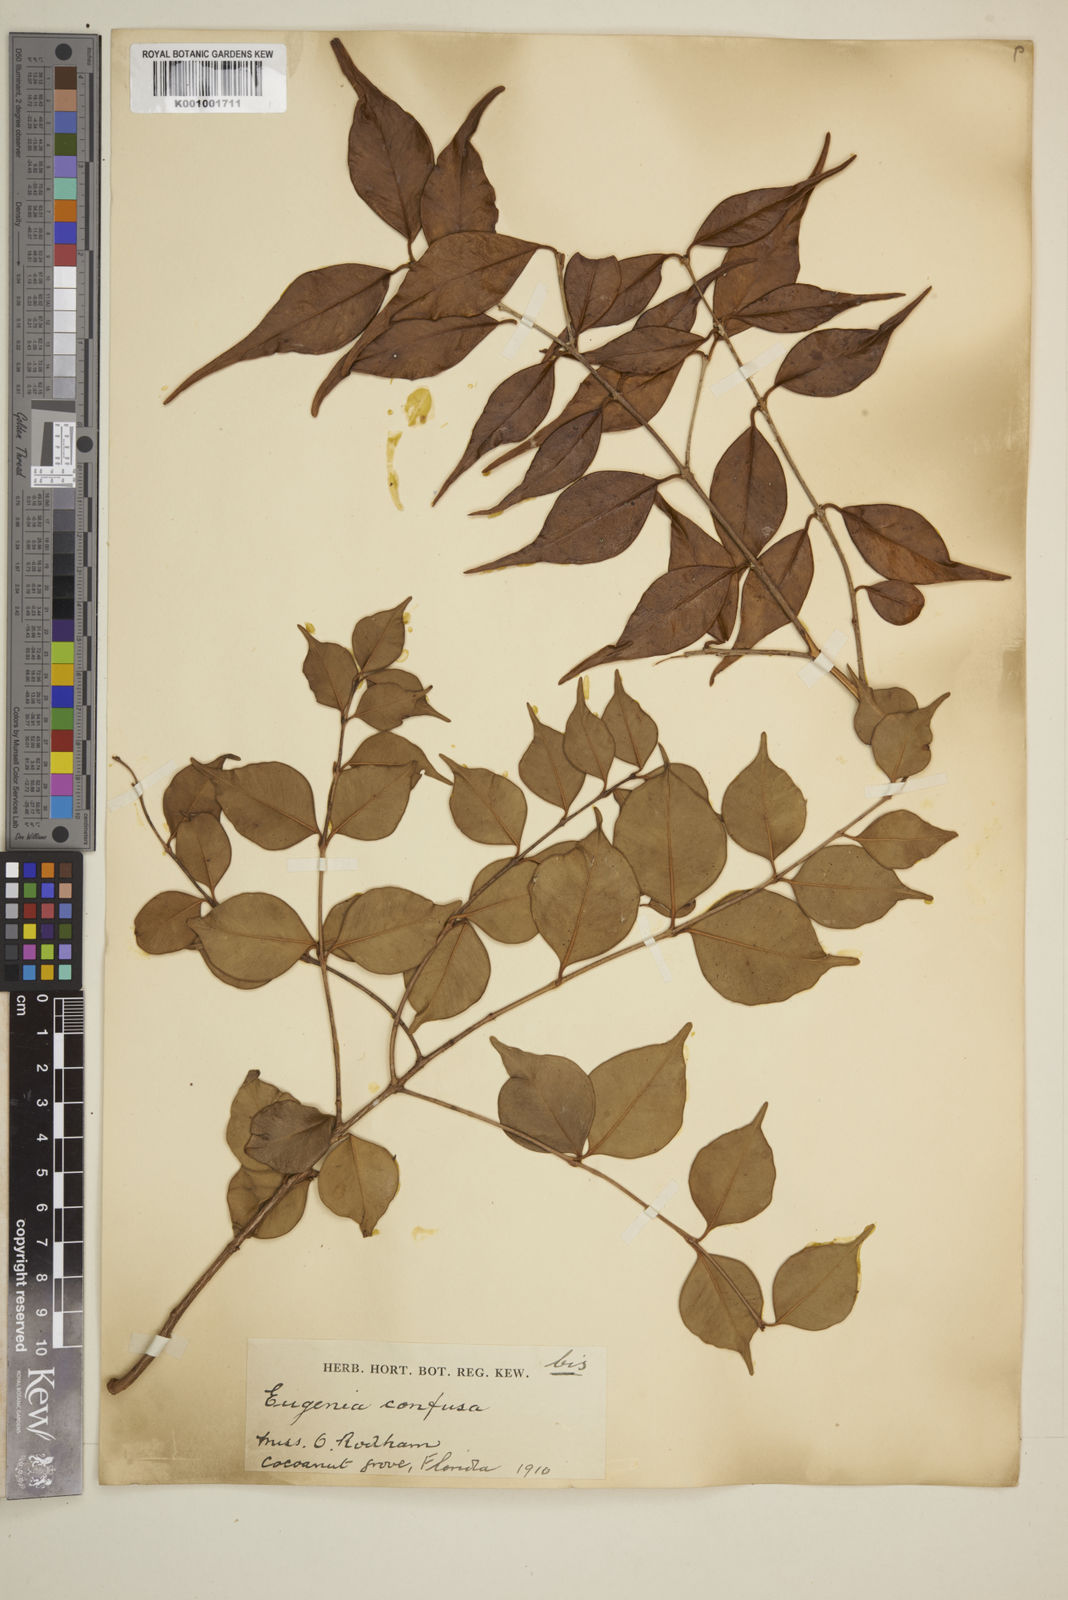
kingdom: Plantae
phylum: Tracheophyta
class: Magnoliopsida
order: Myrtales
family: Myrtaceae
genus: Eugenia
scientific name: Eugenia confusa
